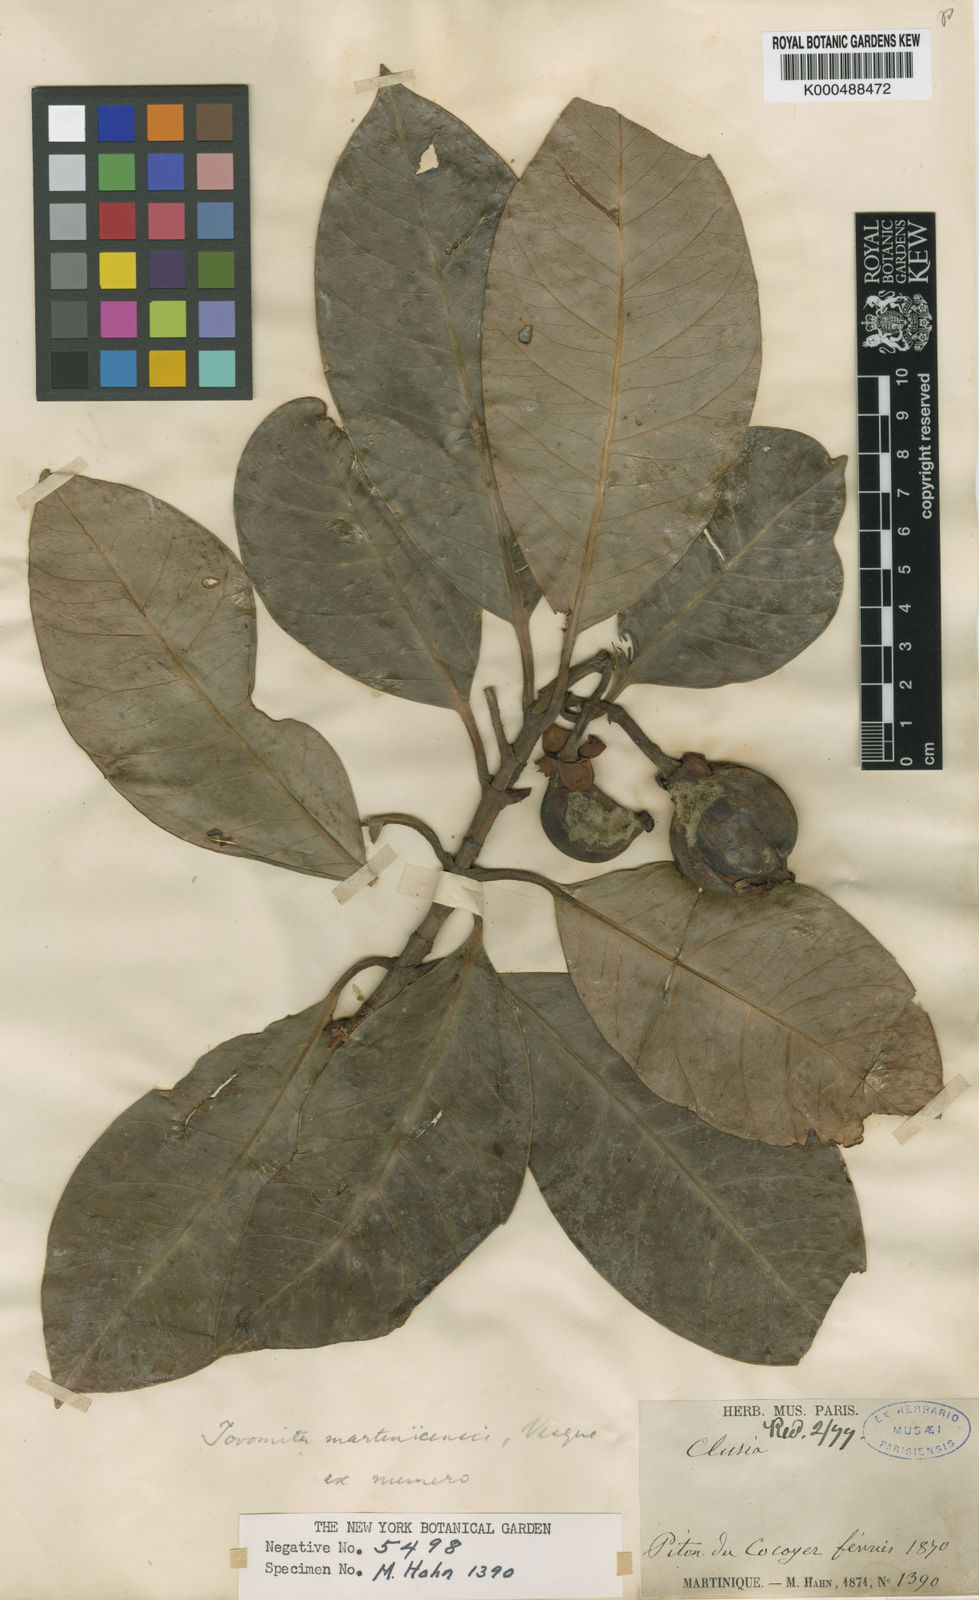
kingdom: Plantae
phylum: Tracheophyta
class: Magnoliopsida
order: Malpighiales
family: Clusiaceae
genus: Tovomita
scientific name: Tovomita plumieri
